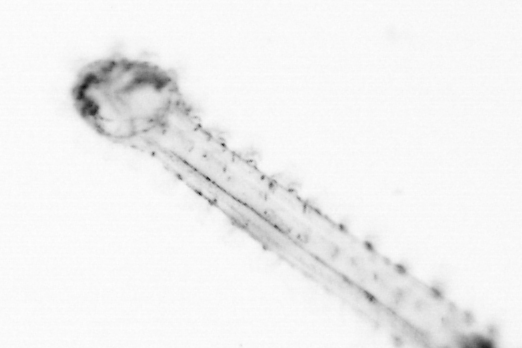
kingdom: Animalia
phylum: Chordata
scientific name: Chordata
